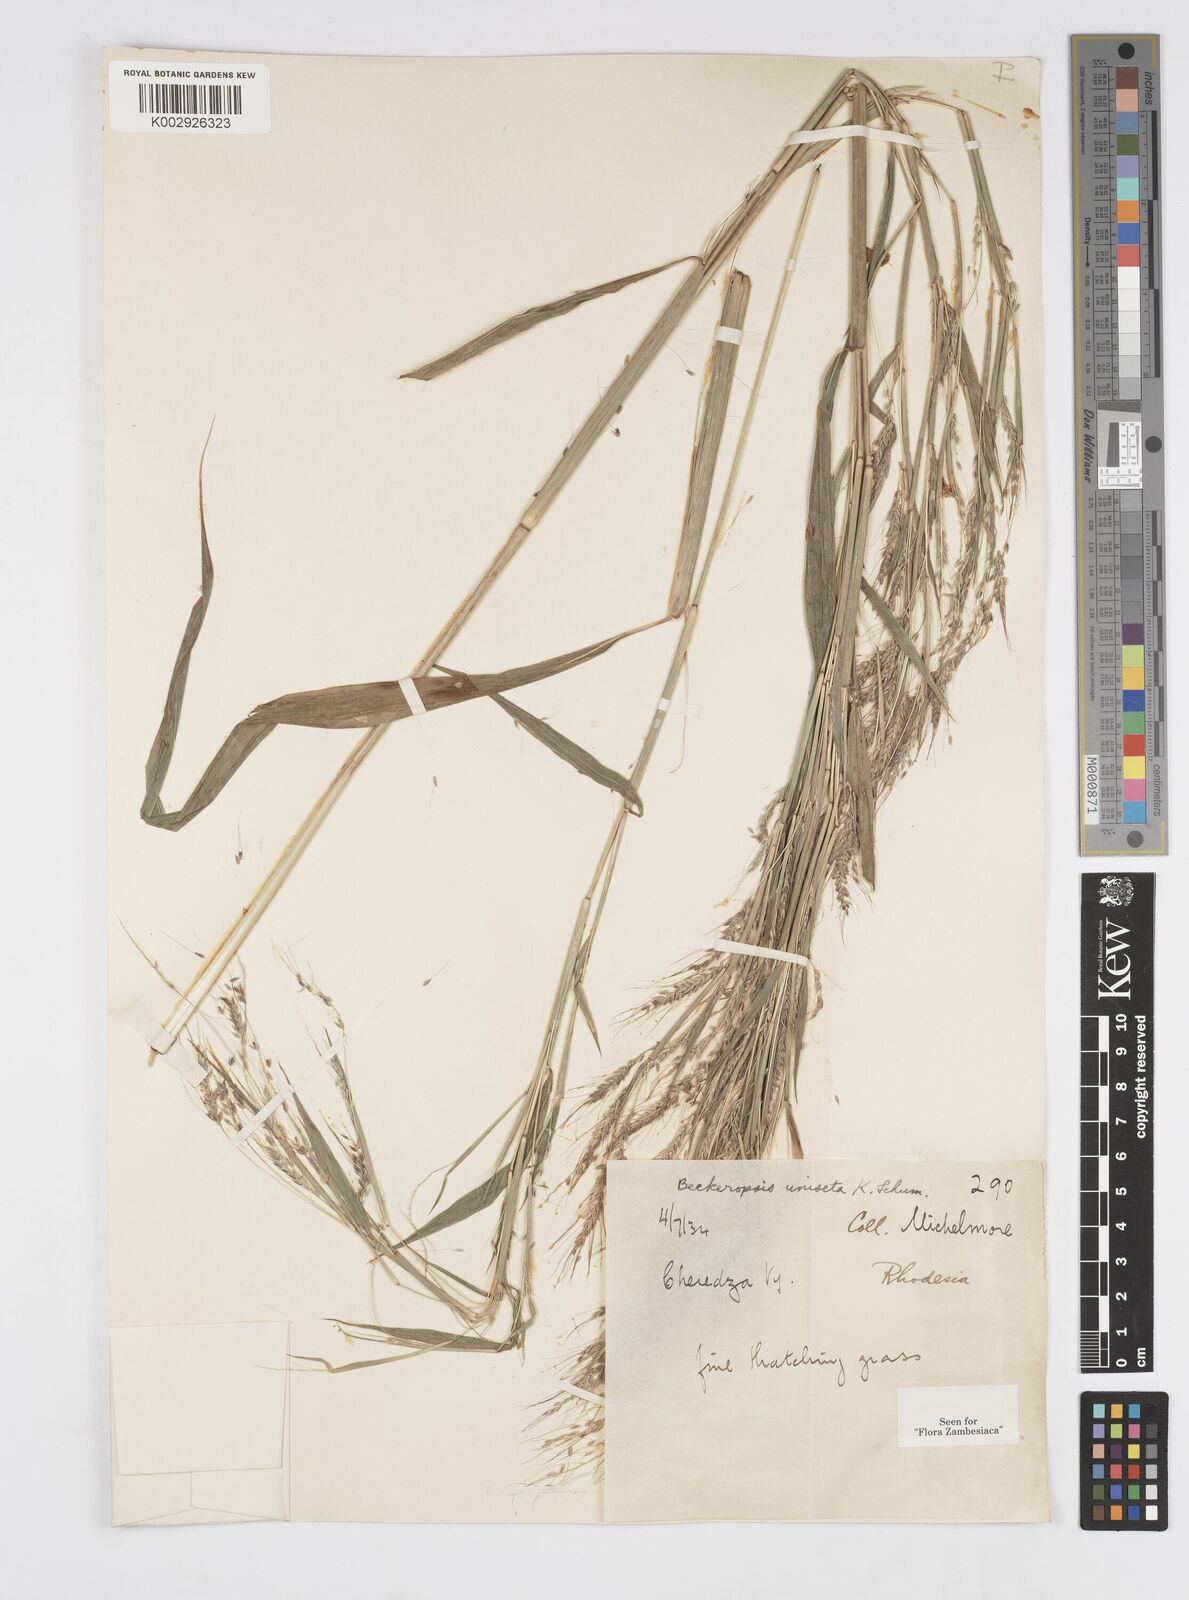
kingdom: Plantae
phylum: Tracheophyta
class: Liliopsida
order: Poales
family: Poaceae
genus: Cenchrus
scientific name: Cenchrus unisetus
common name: Natal grass
